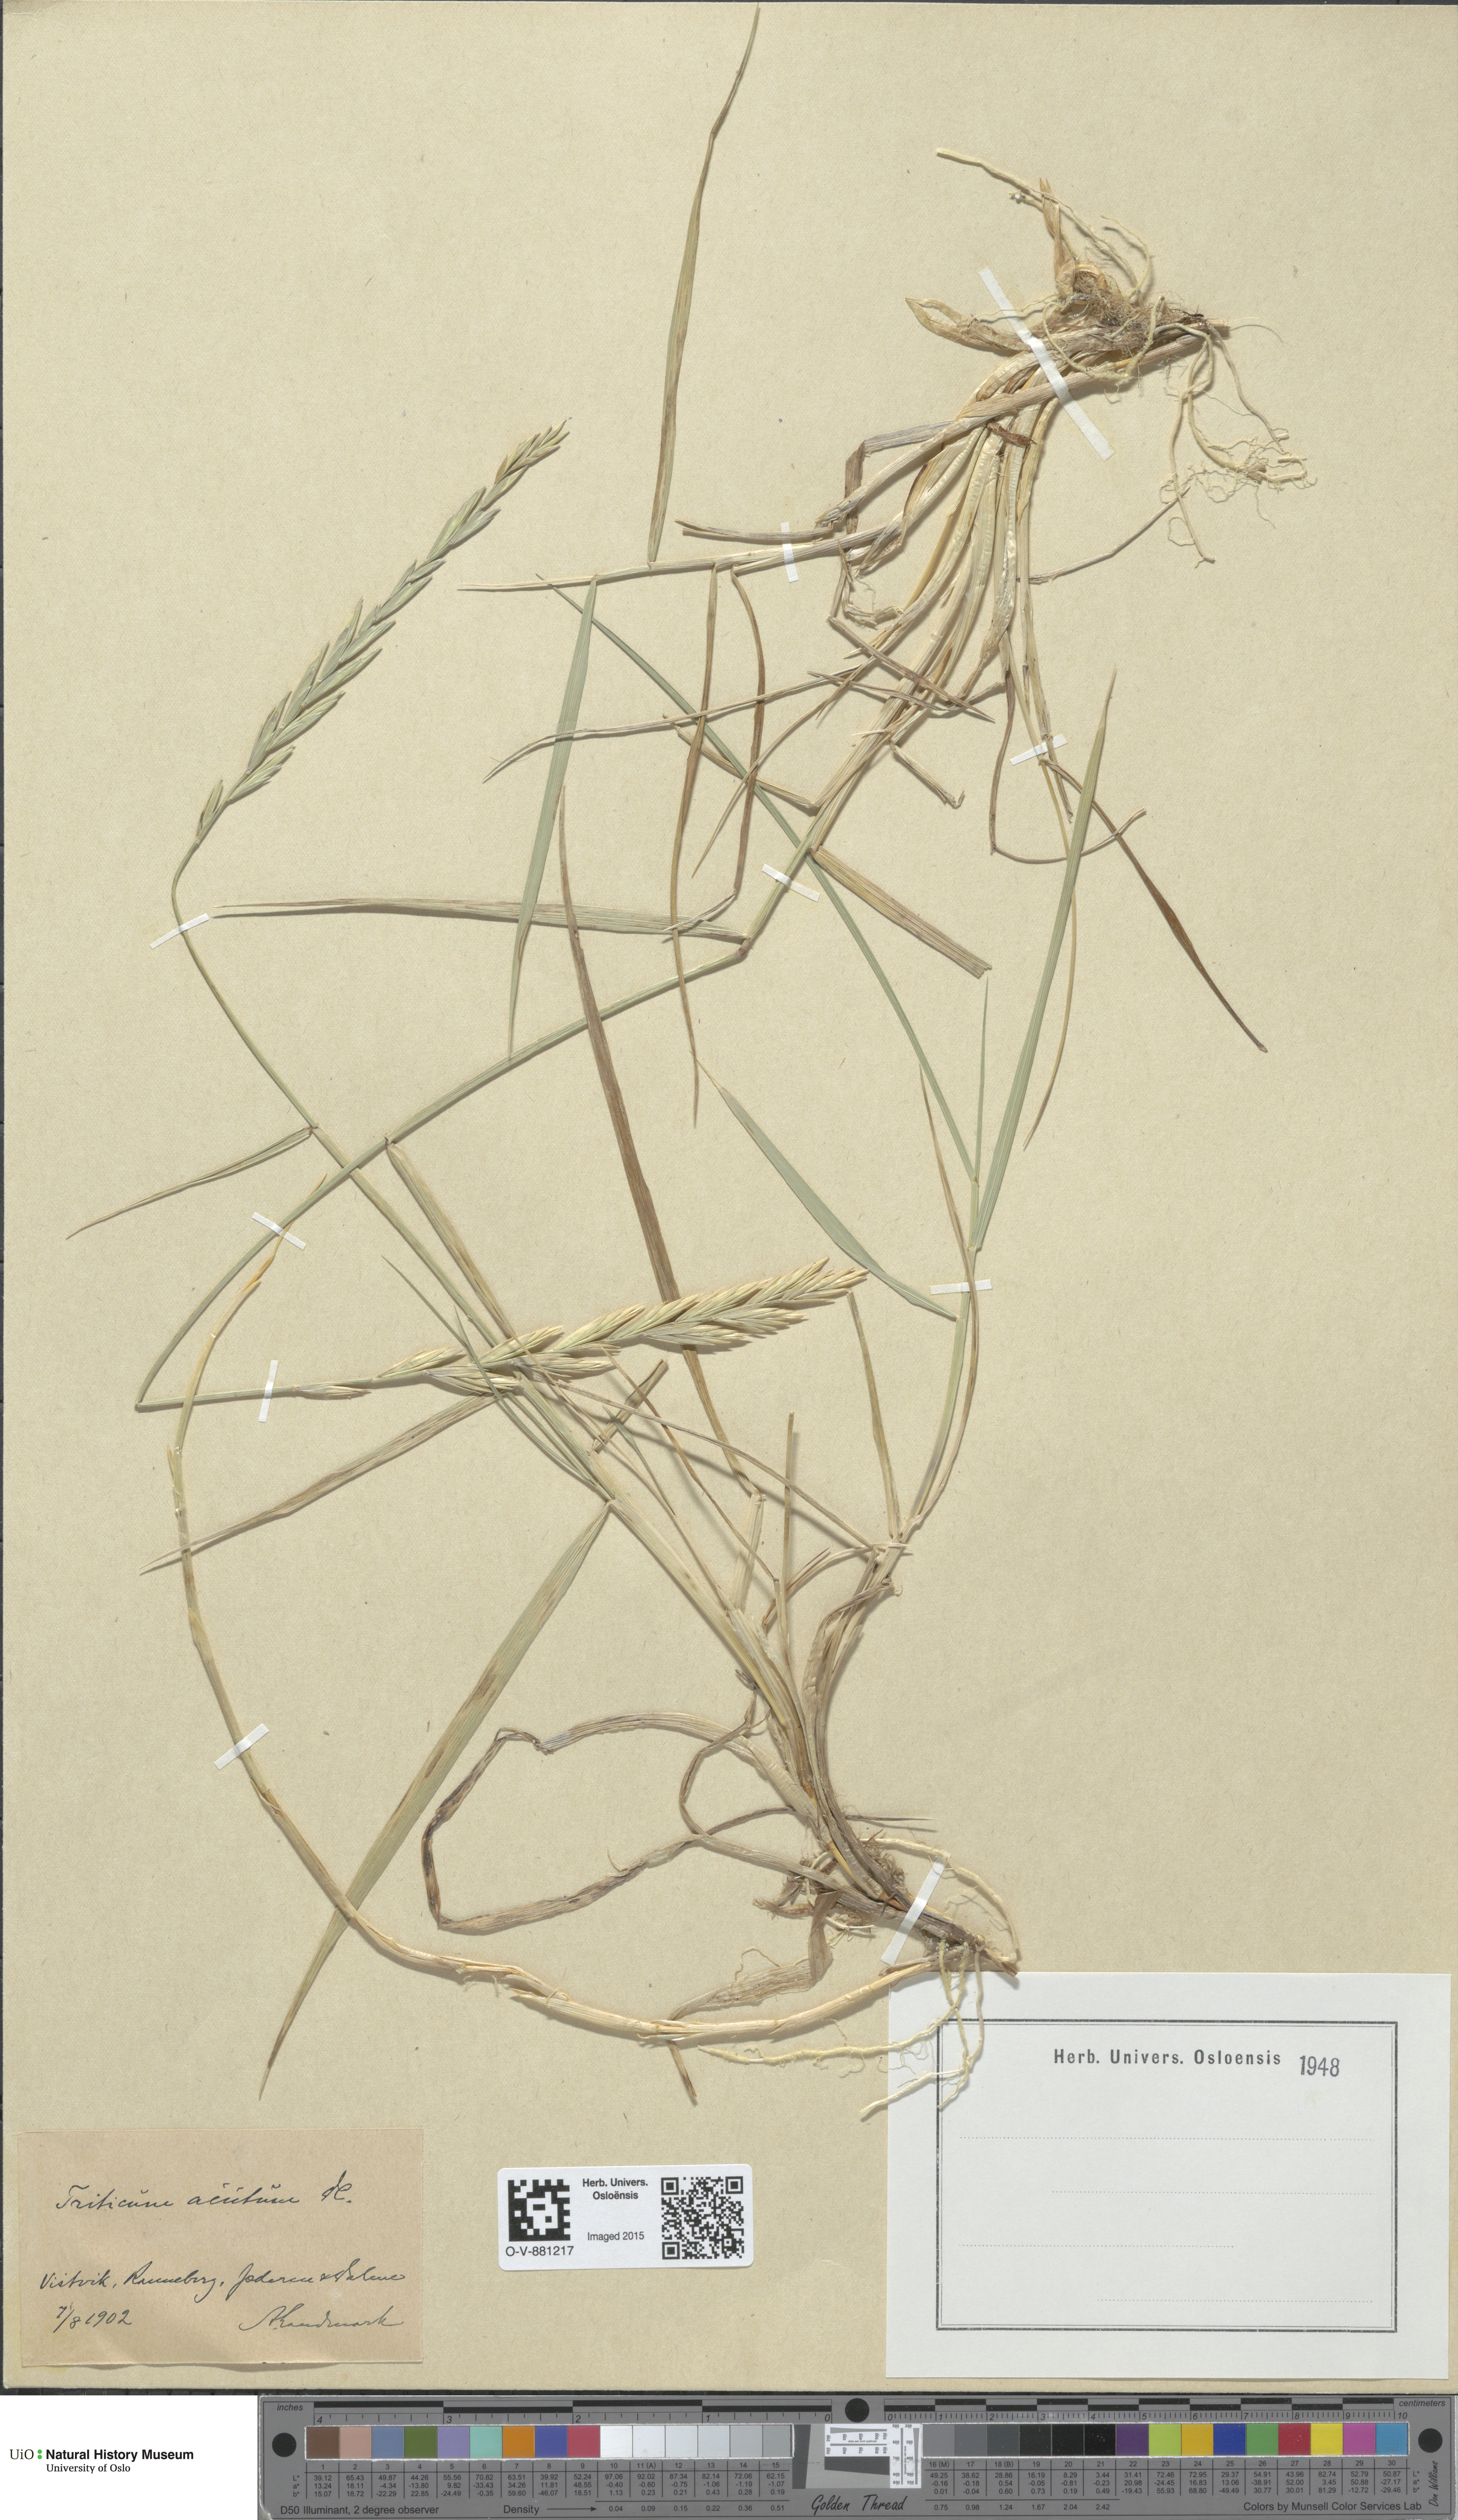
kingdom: Plantae
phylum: Tracheophyta
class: Liliopsida
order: Poales
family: Poaceae
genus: Thinopyrum
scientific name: Thinopyrum acutum
